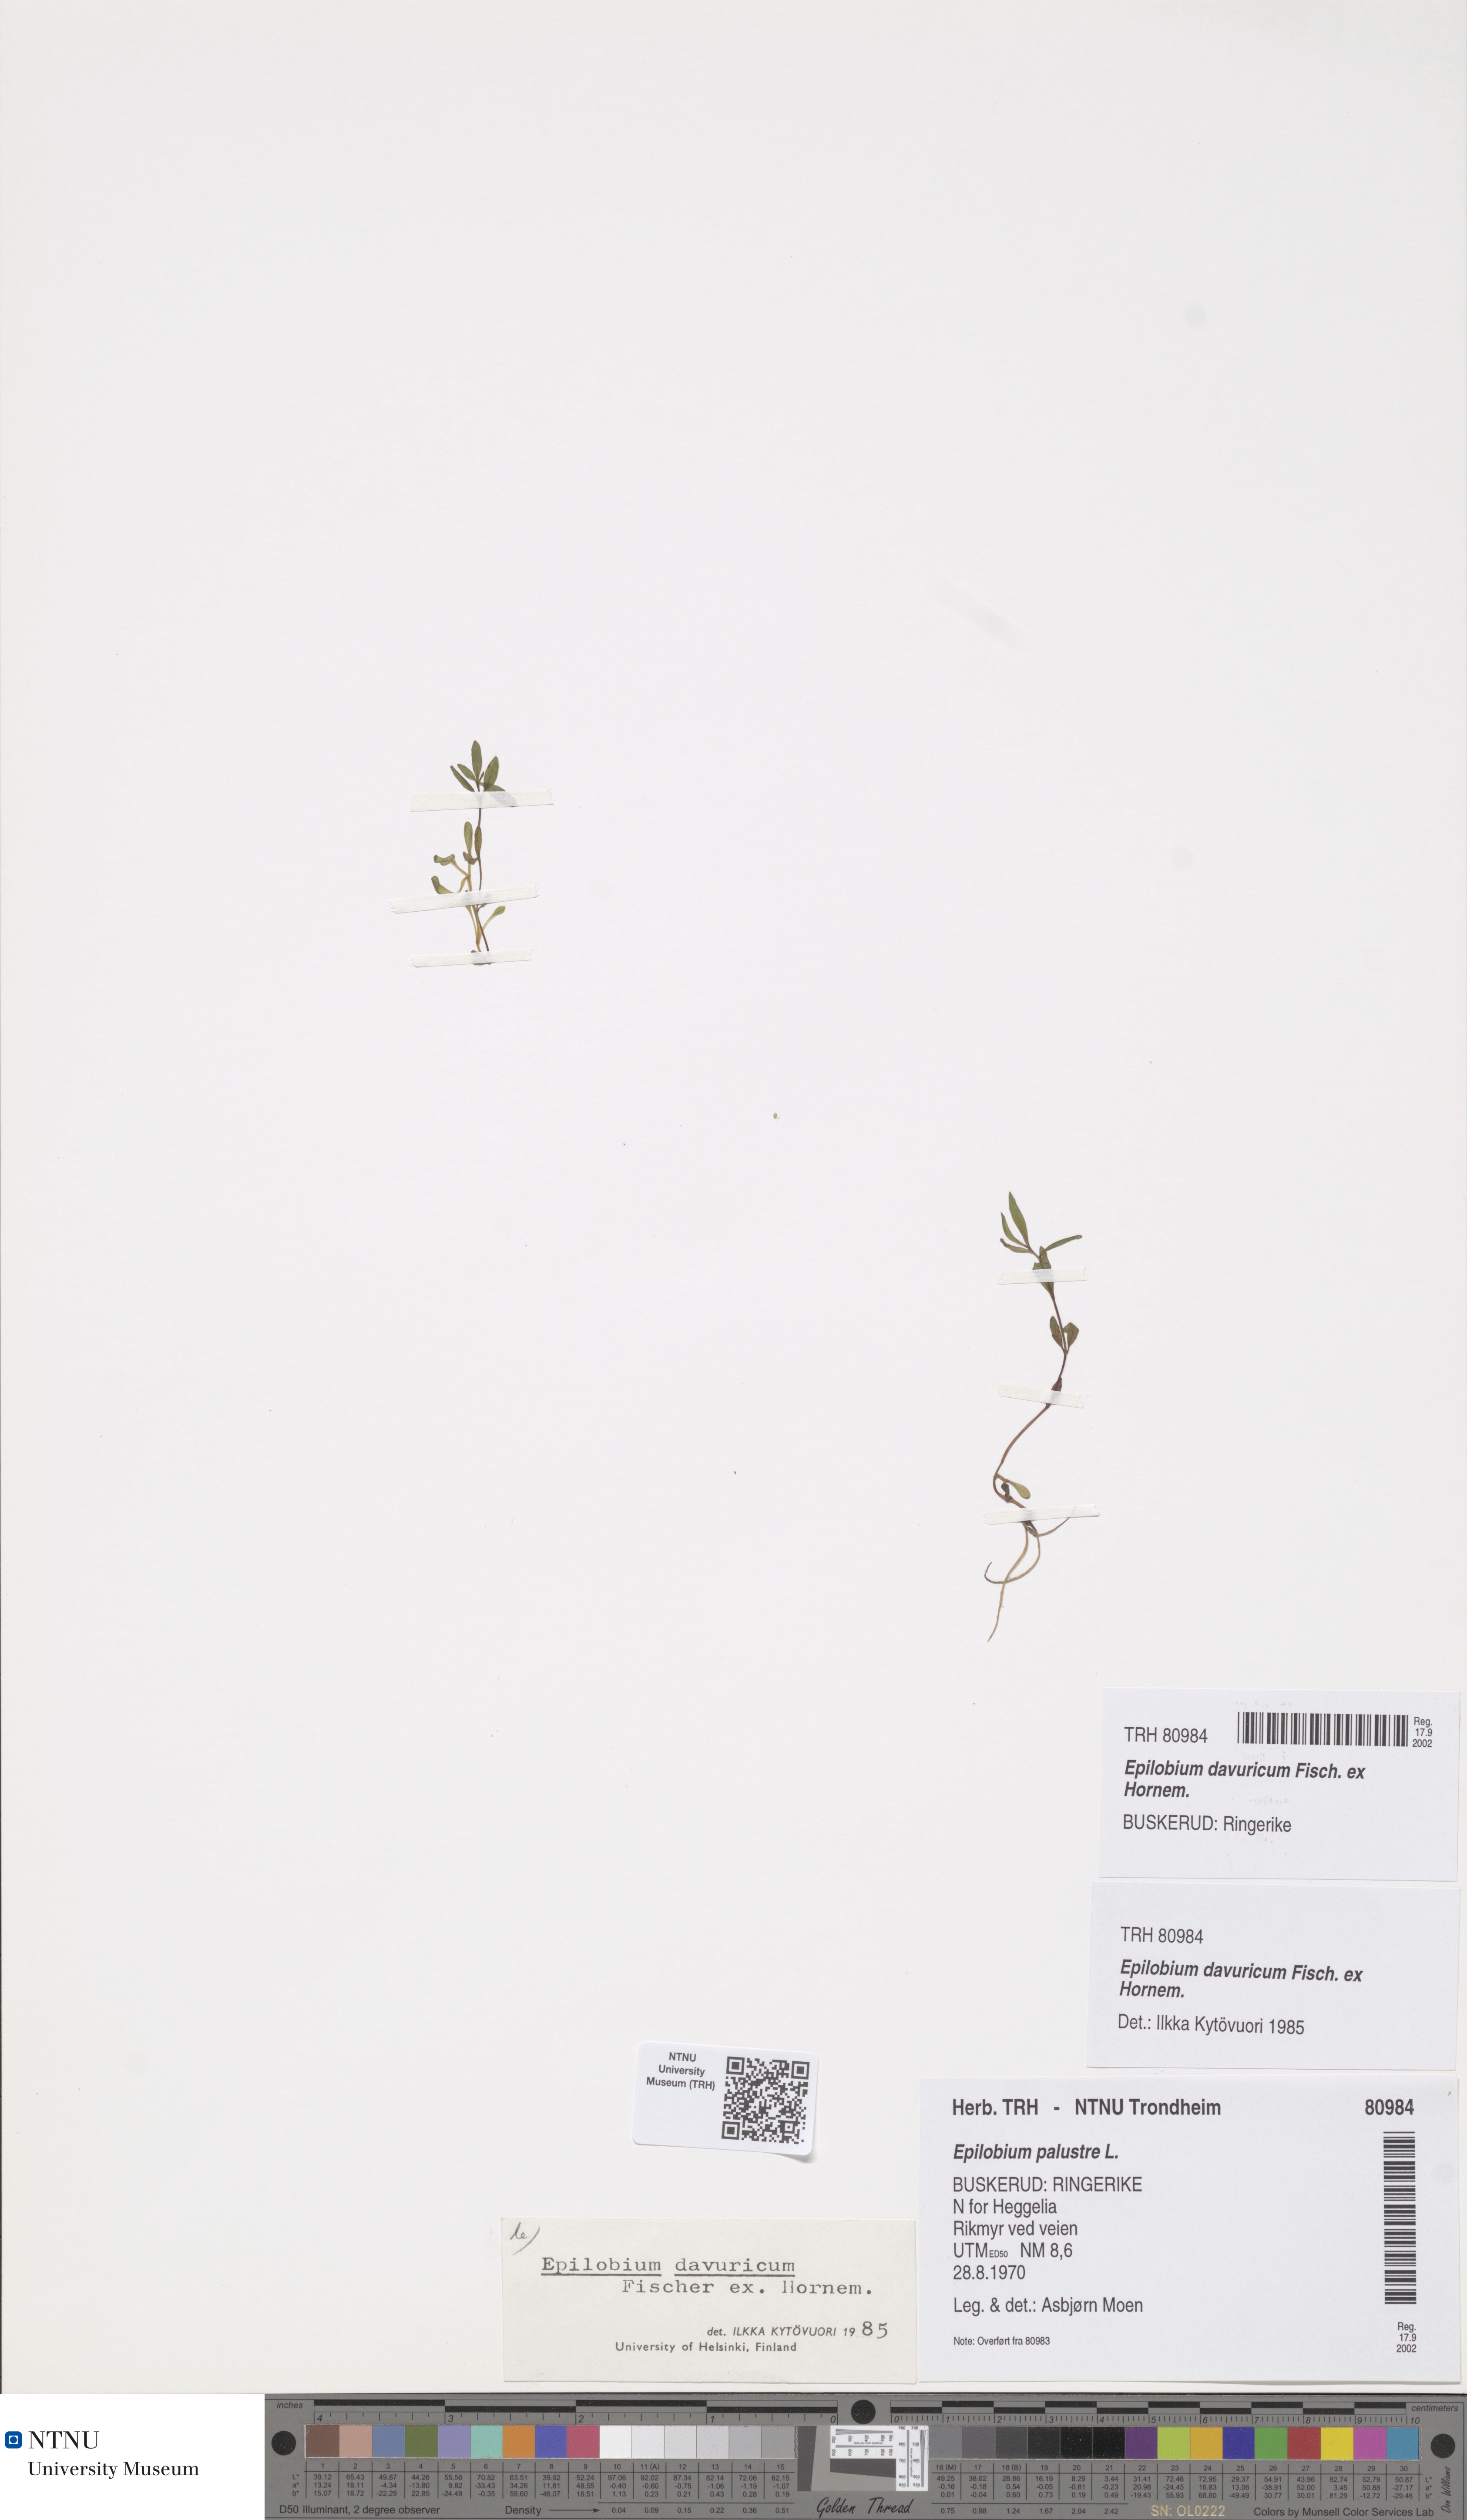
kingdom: Plantae
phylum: Tracheophyta
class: Magnoliopsida
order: Myrtales
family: Onagraceae
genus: Epilobium
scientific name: Epilobium davuricum
